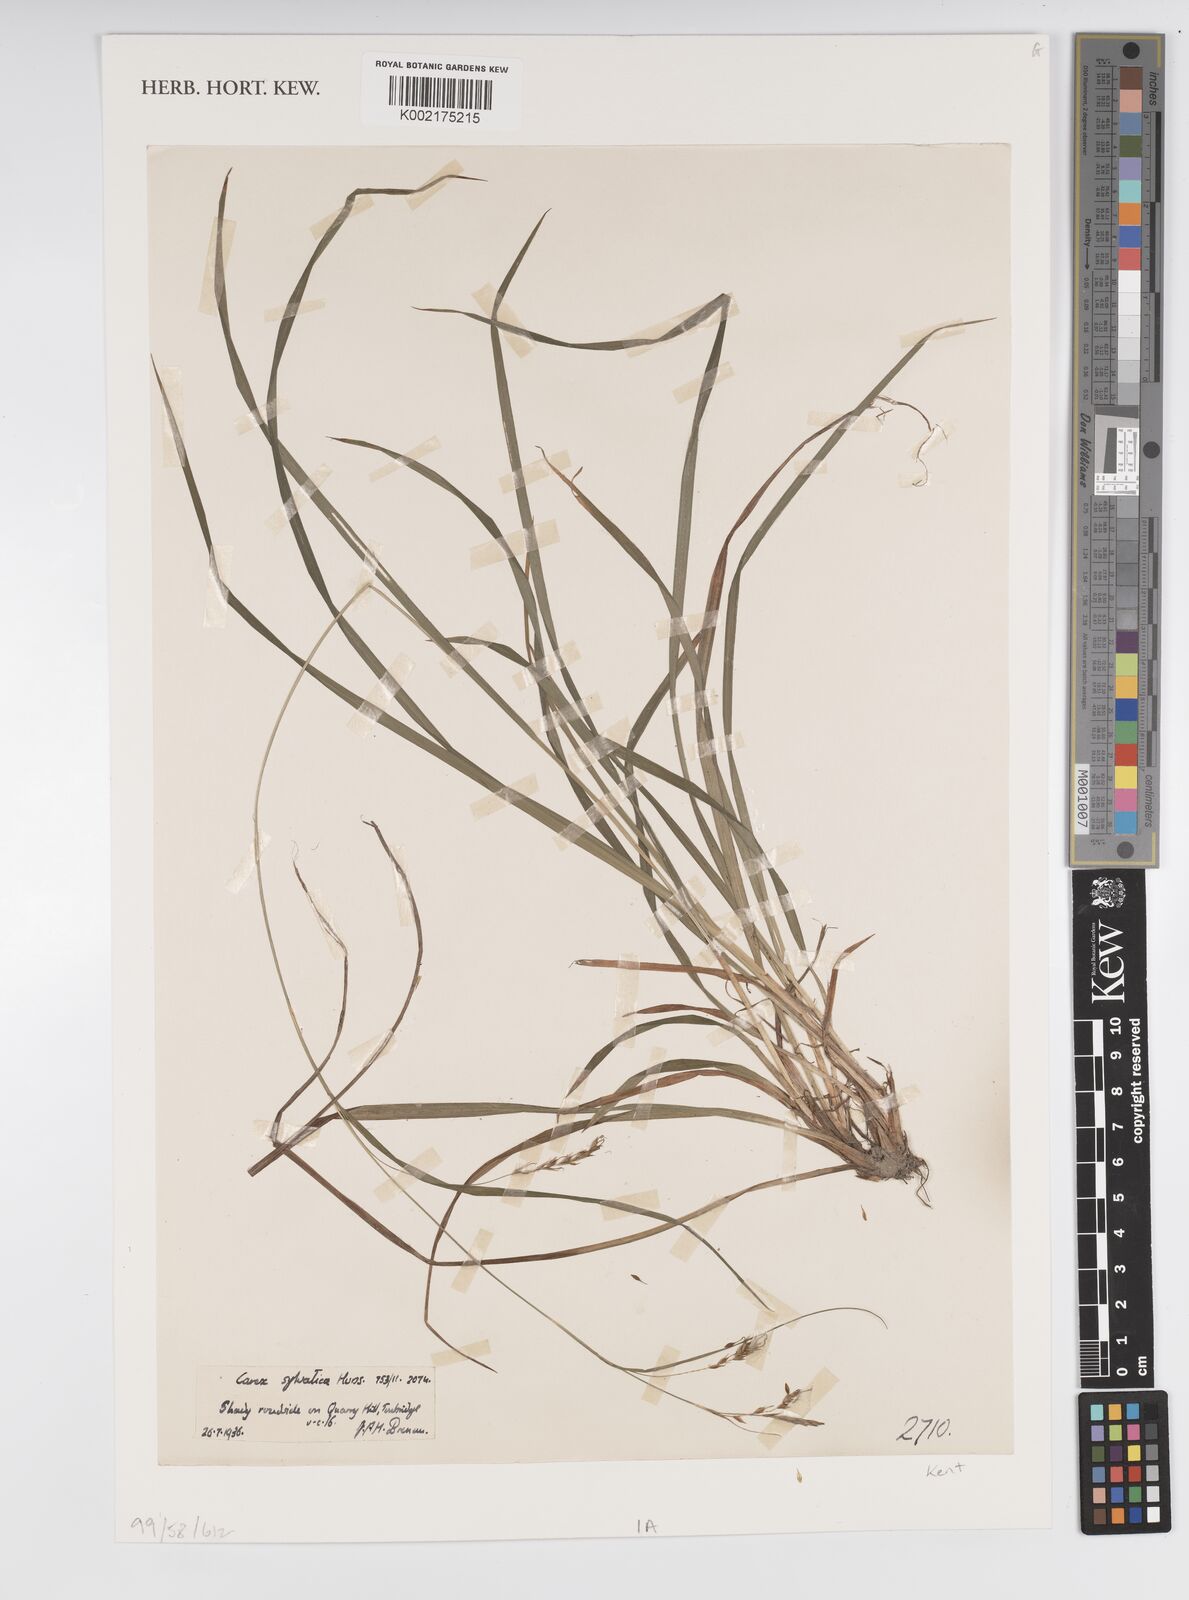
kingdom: Plantae
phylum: Tracheophyta
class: Liliopsida
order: Poales
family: Cyperaceae
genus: Carex
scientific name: Carex sylvatica
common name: Wood-sedge
